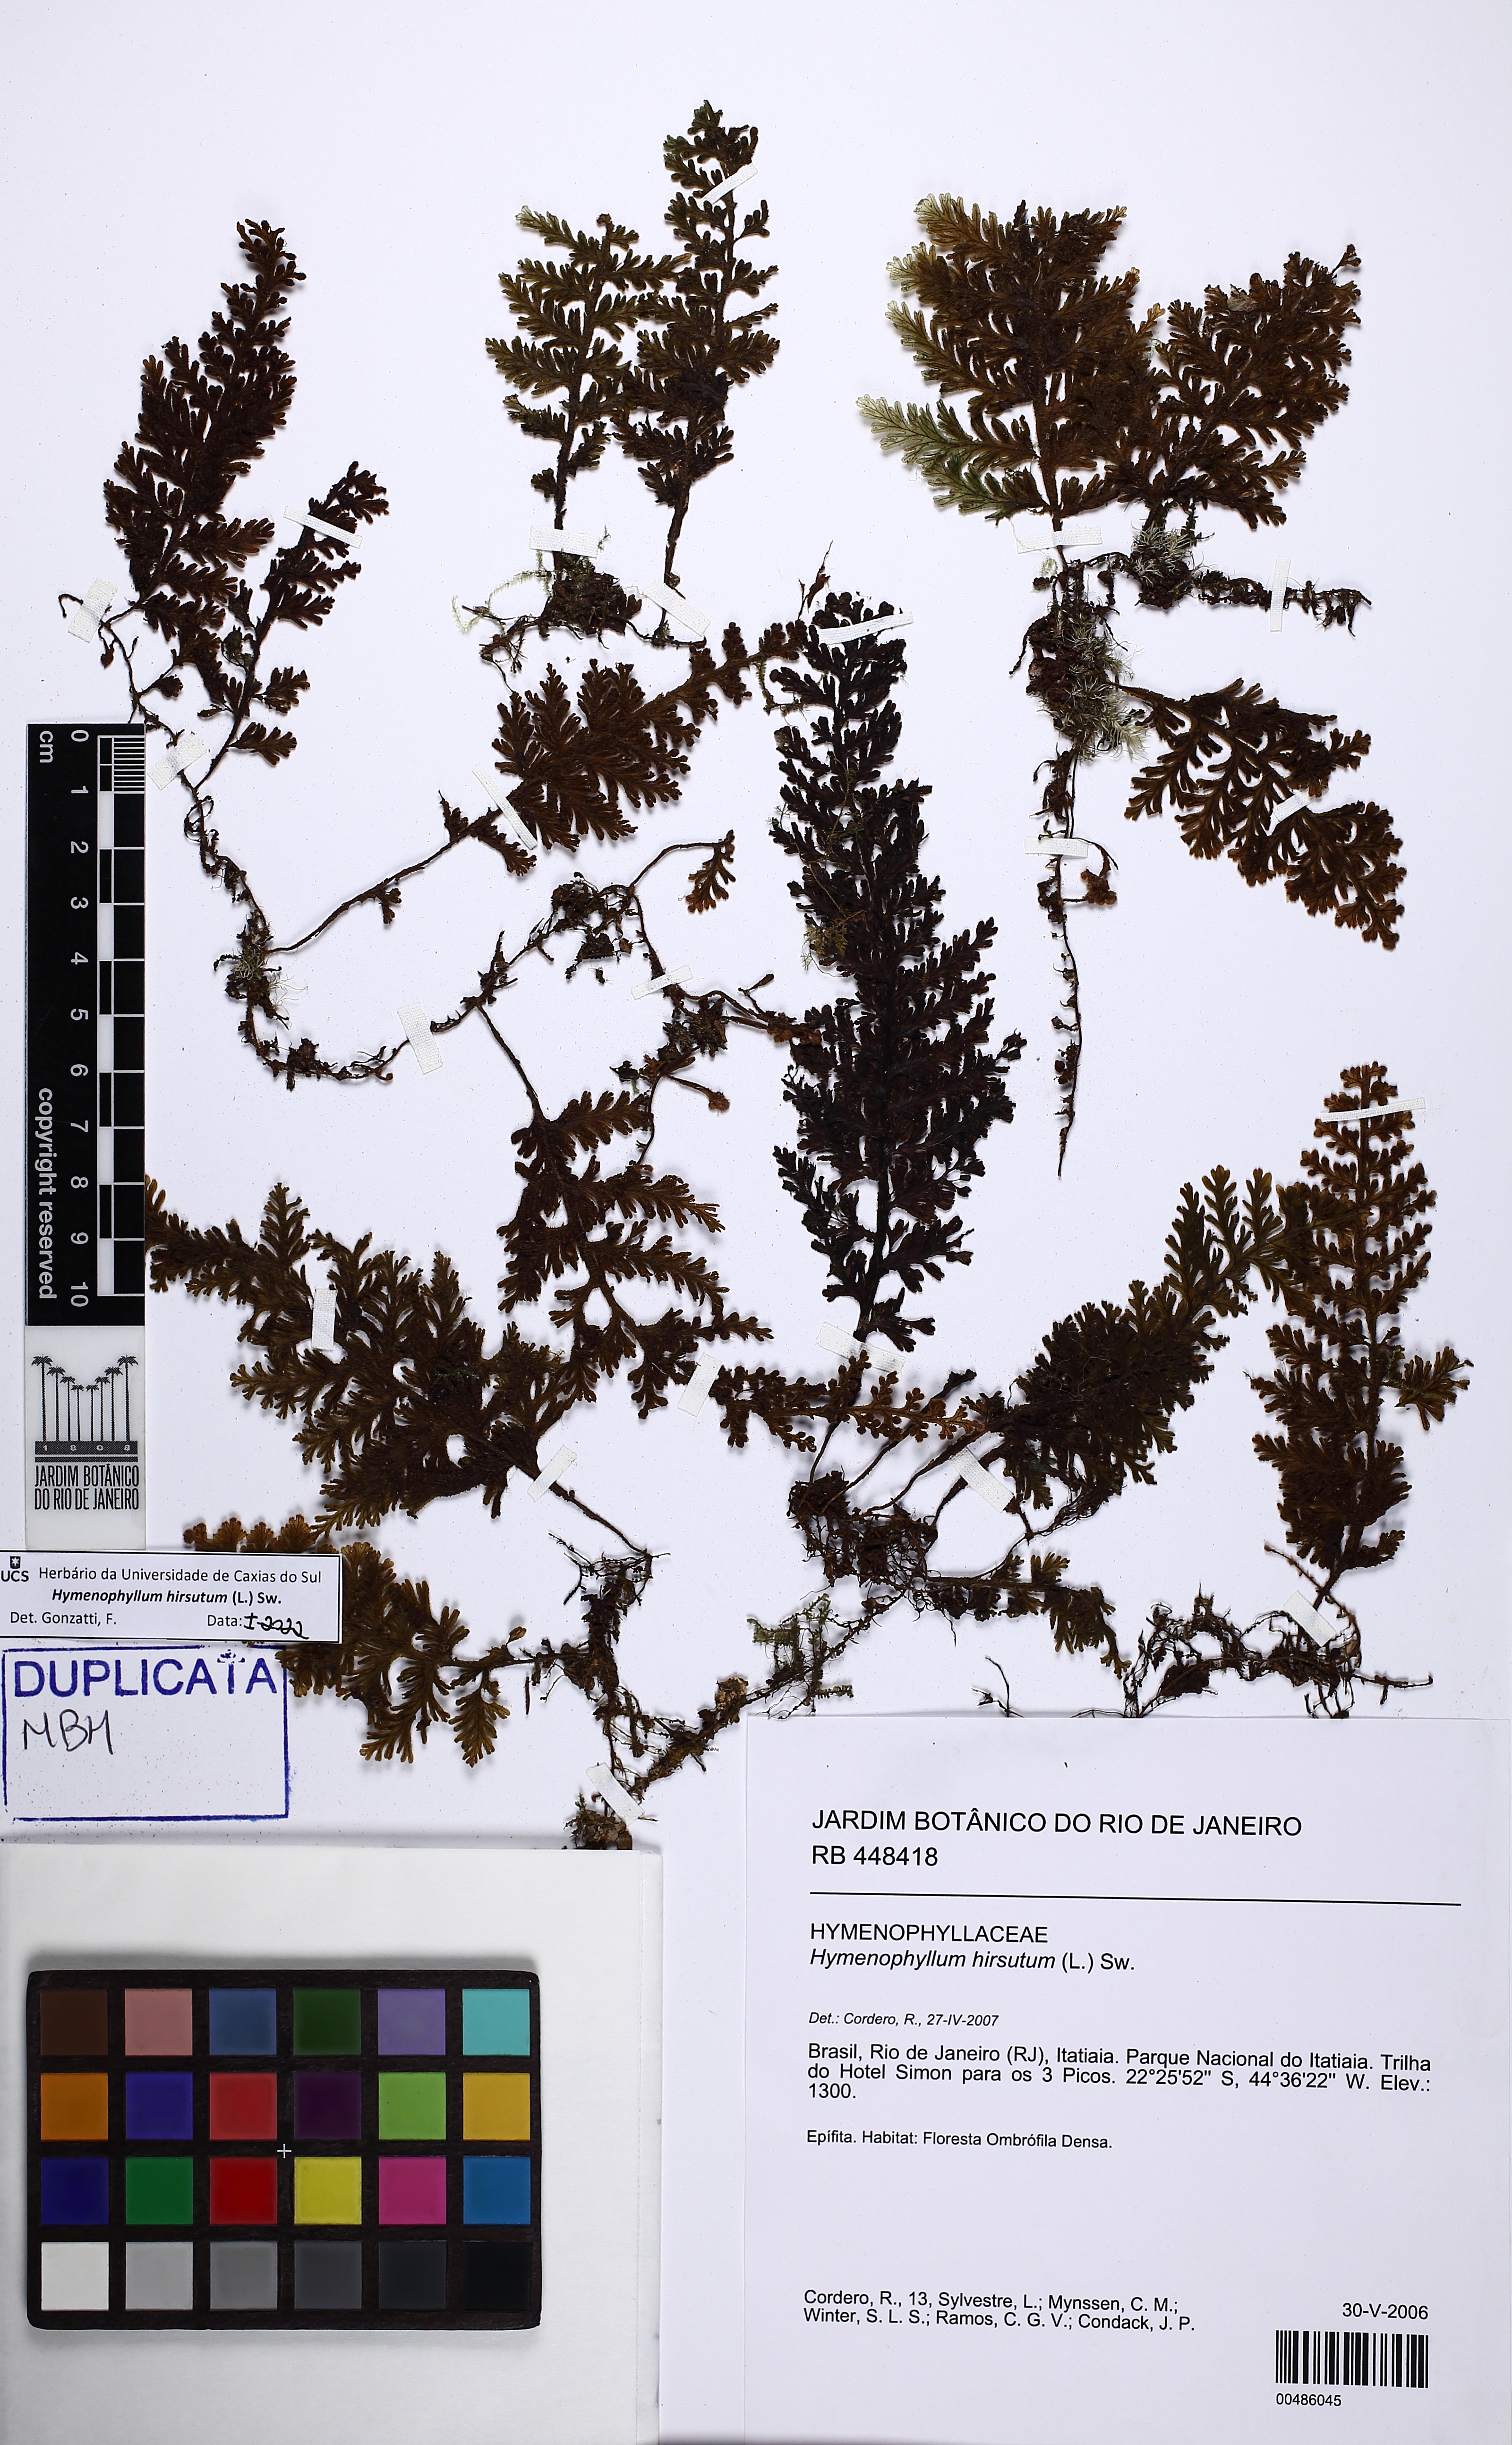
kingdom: Plantae
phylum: Tracheophyta
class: Polypodiopsida
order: Hymenophyllales
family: Hymenophyllaceae
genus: Hymenophyllum
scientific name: Hymenophyllum hirsutum
